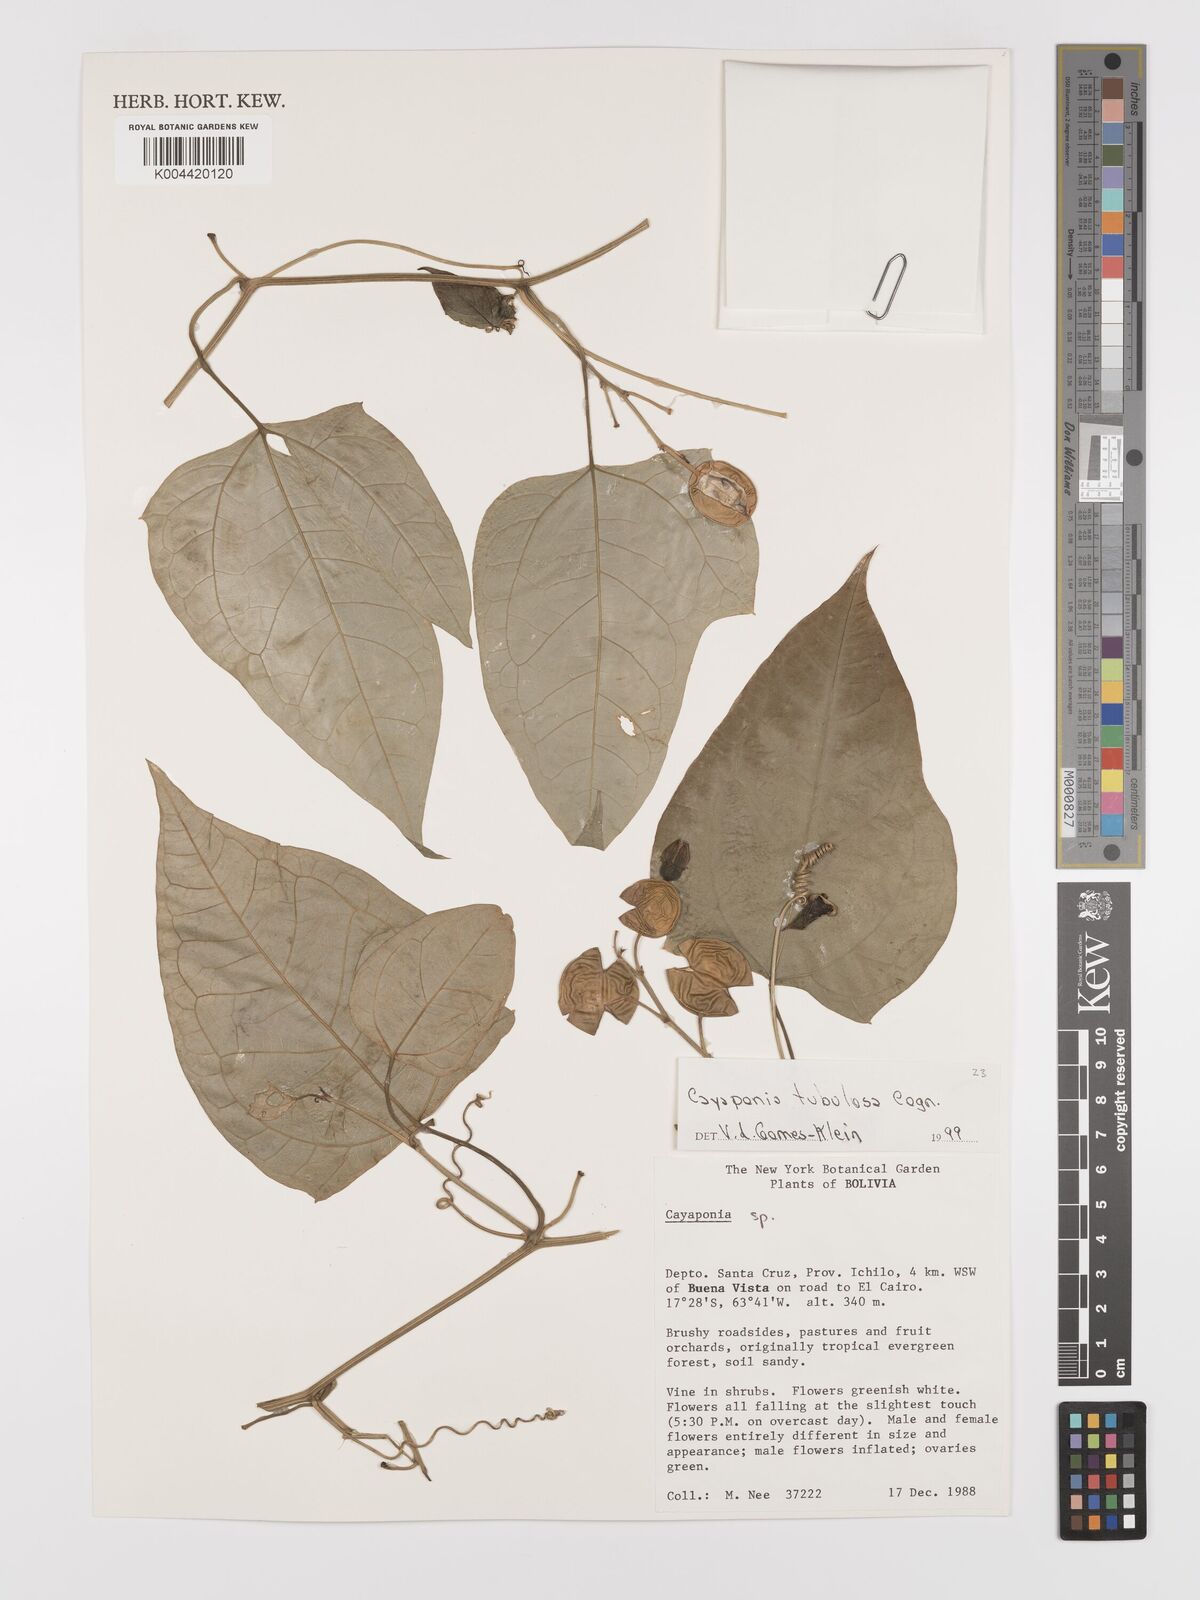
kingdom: Plantae
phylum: Tracheophyta
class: Magnoliopsida
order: Cucurbitales
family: Cucurbitaceae
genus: Cayaponia
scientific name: Cayaponia tubulosa
